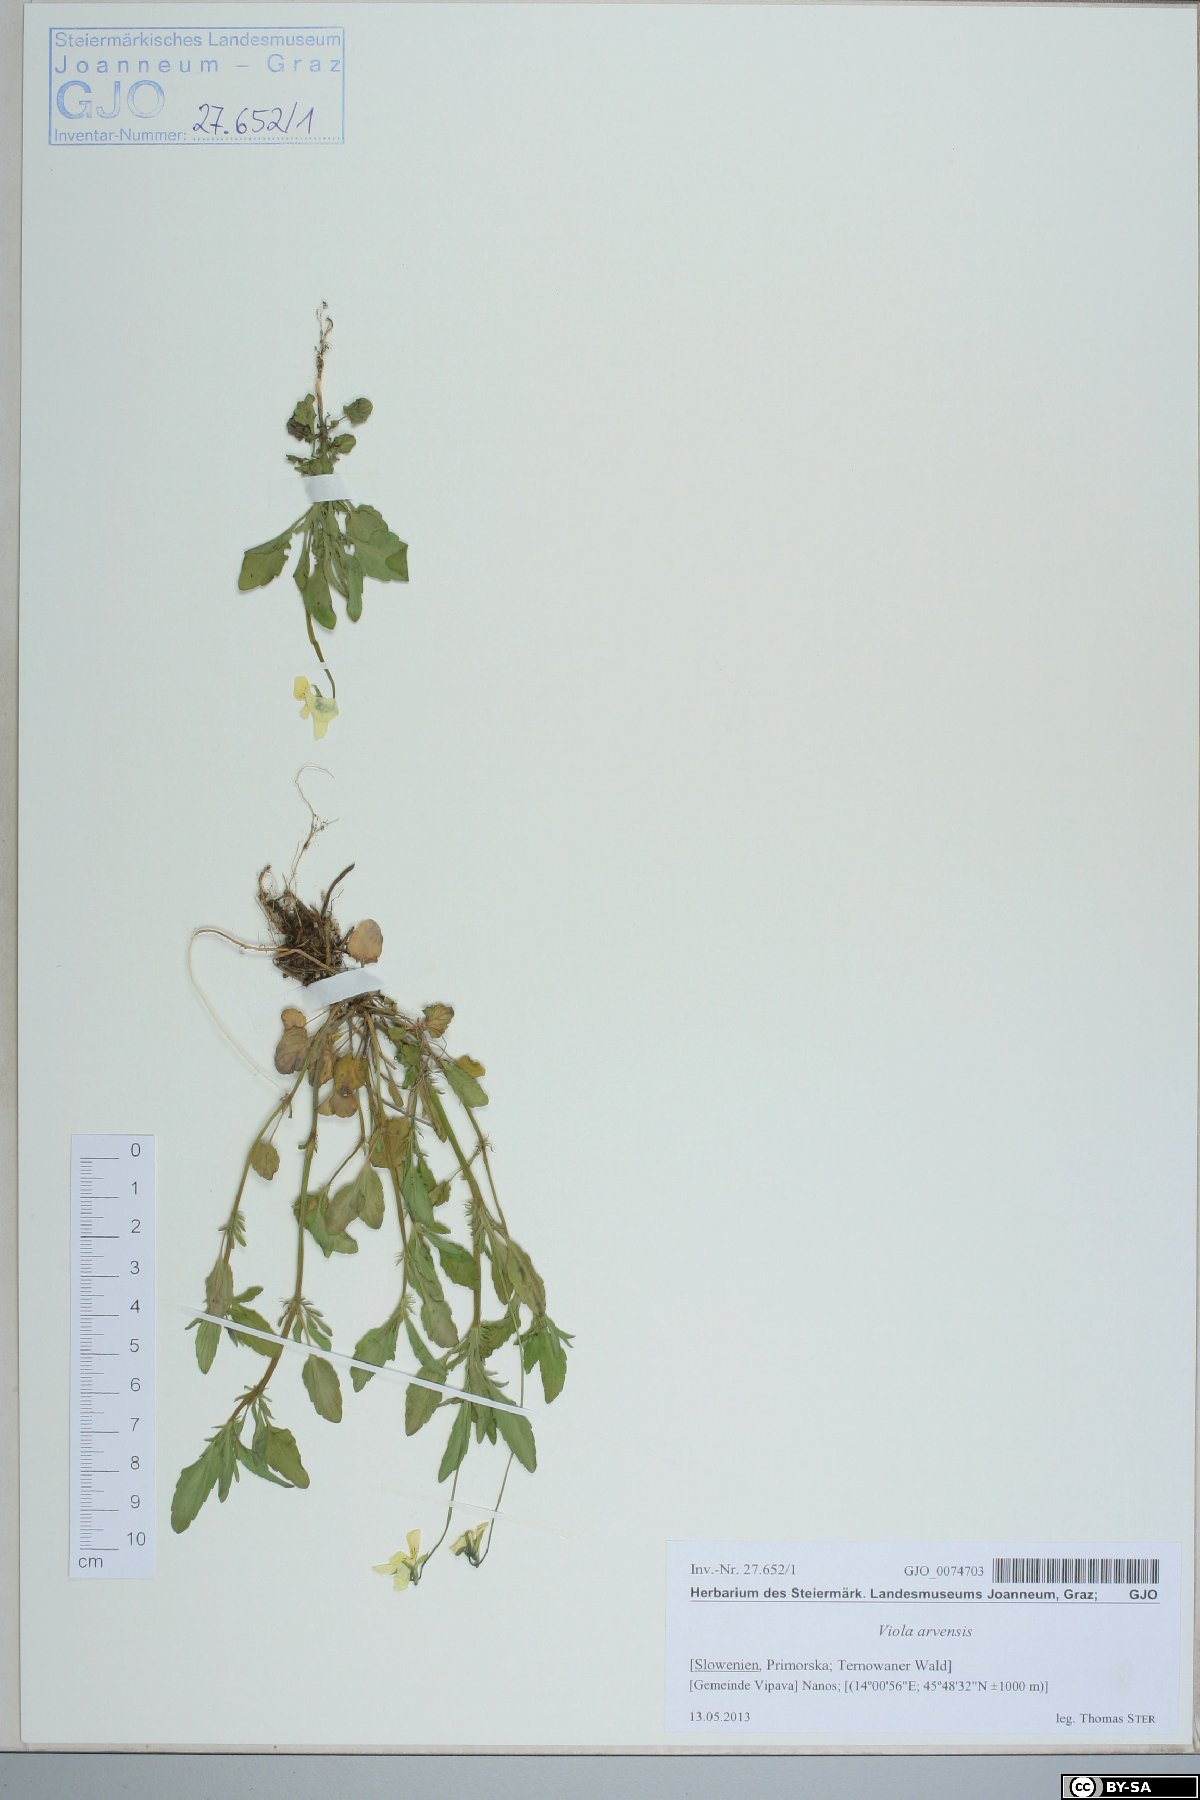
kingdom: Plantae
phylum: Tracheophyta
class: Magnoliopsida
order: Malpighiales
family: Violaceae
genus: Viola
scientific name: Viola arvensis
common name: Field pansy
